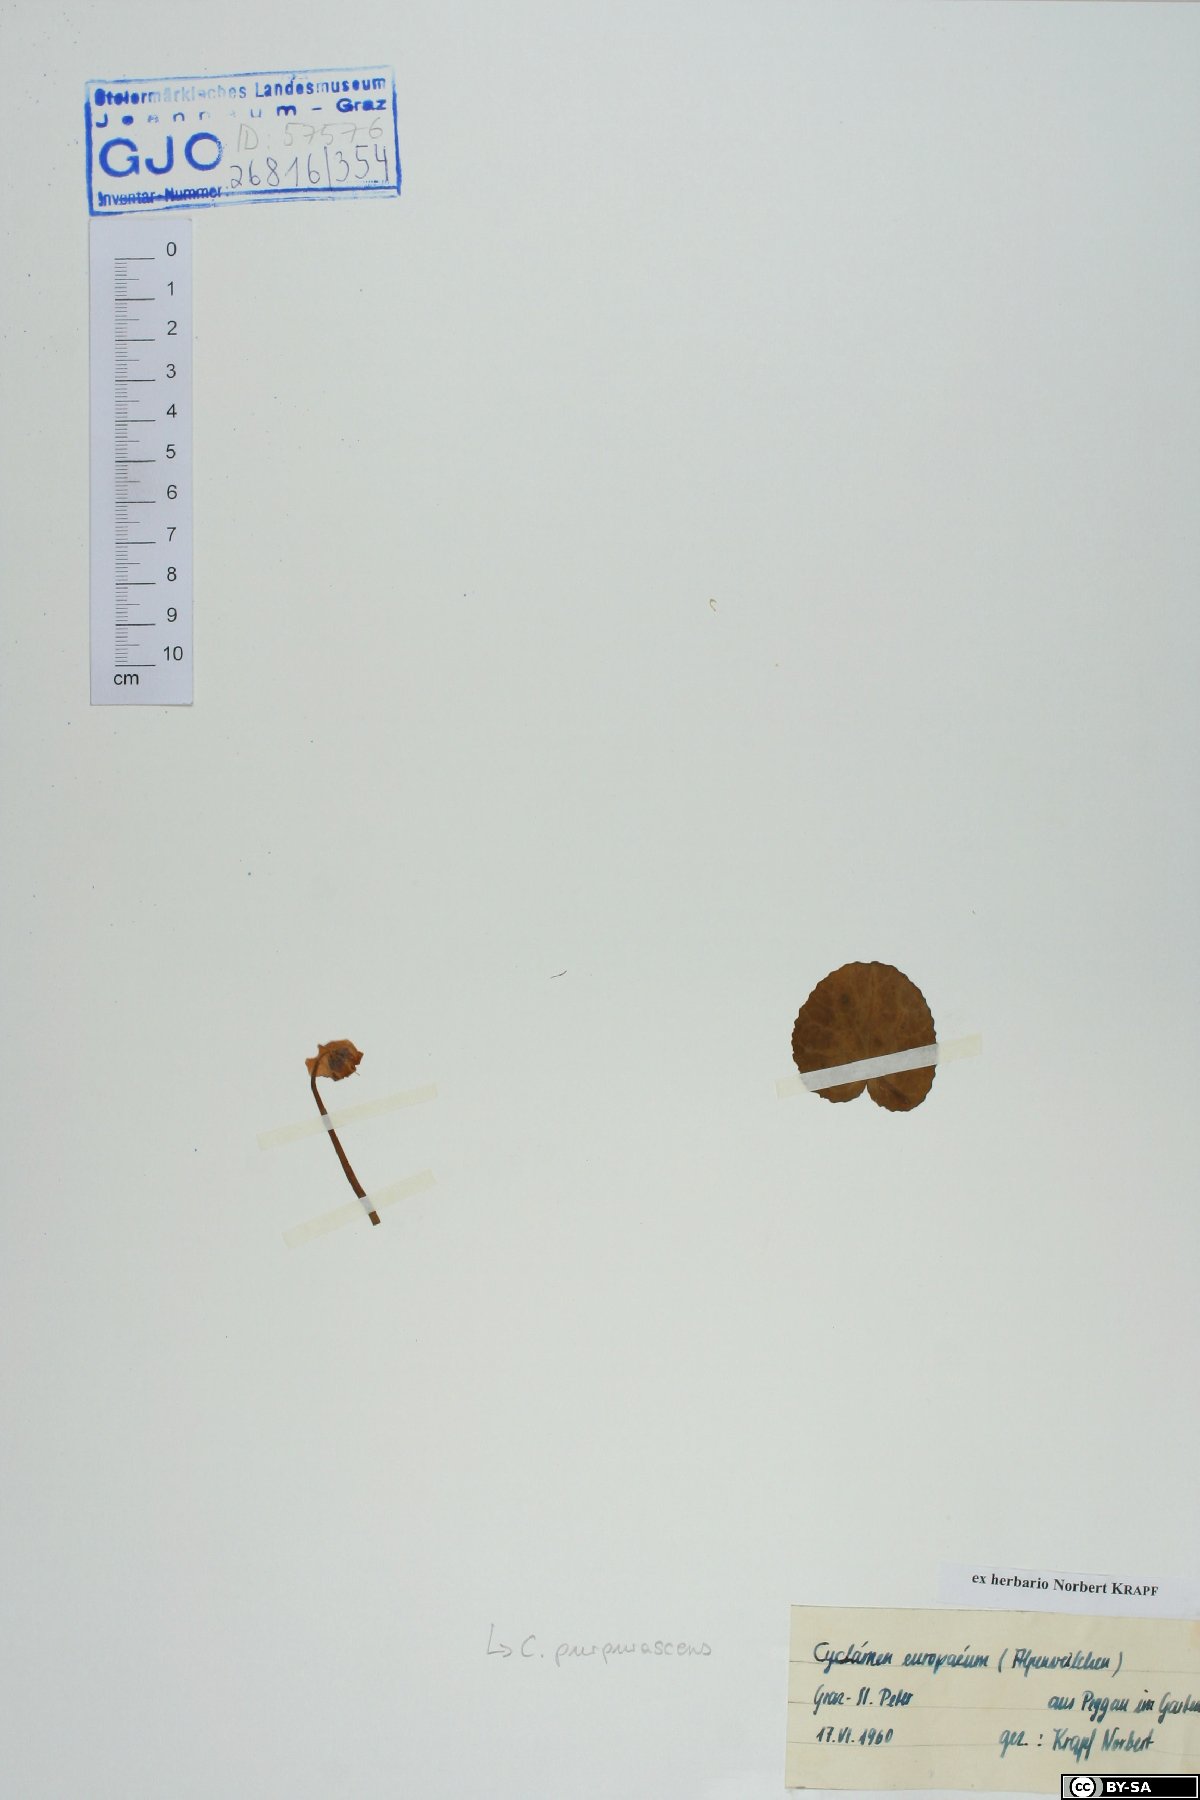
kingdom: Plantae
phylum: Tracheophyta
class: Magnoliopsida
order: Ericales
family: Primulaceae
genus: Cyclamen
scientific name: Cyclamen purpurascens
